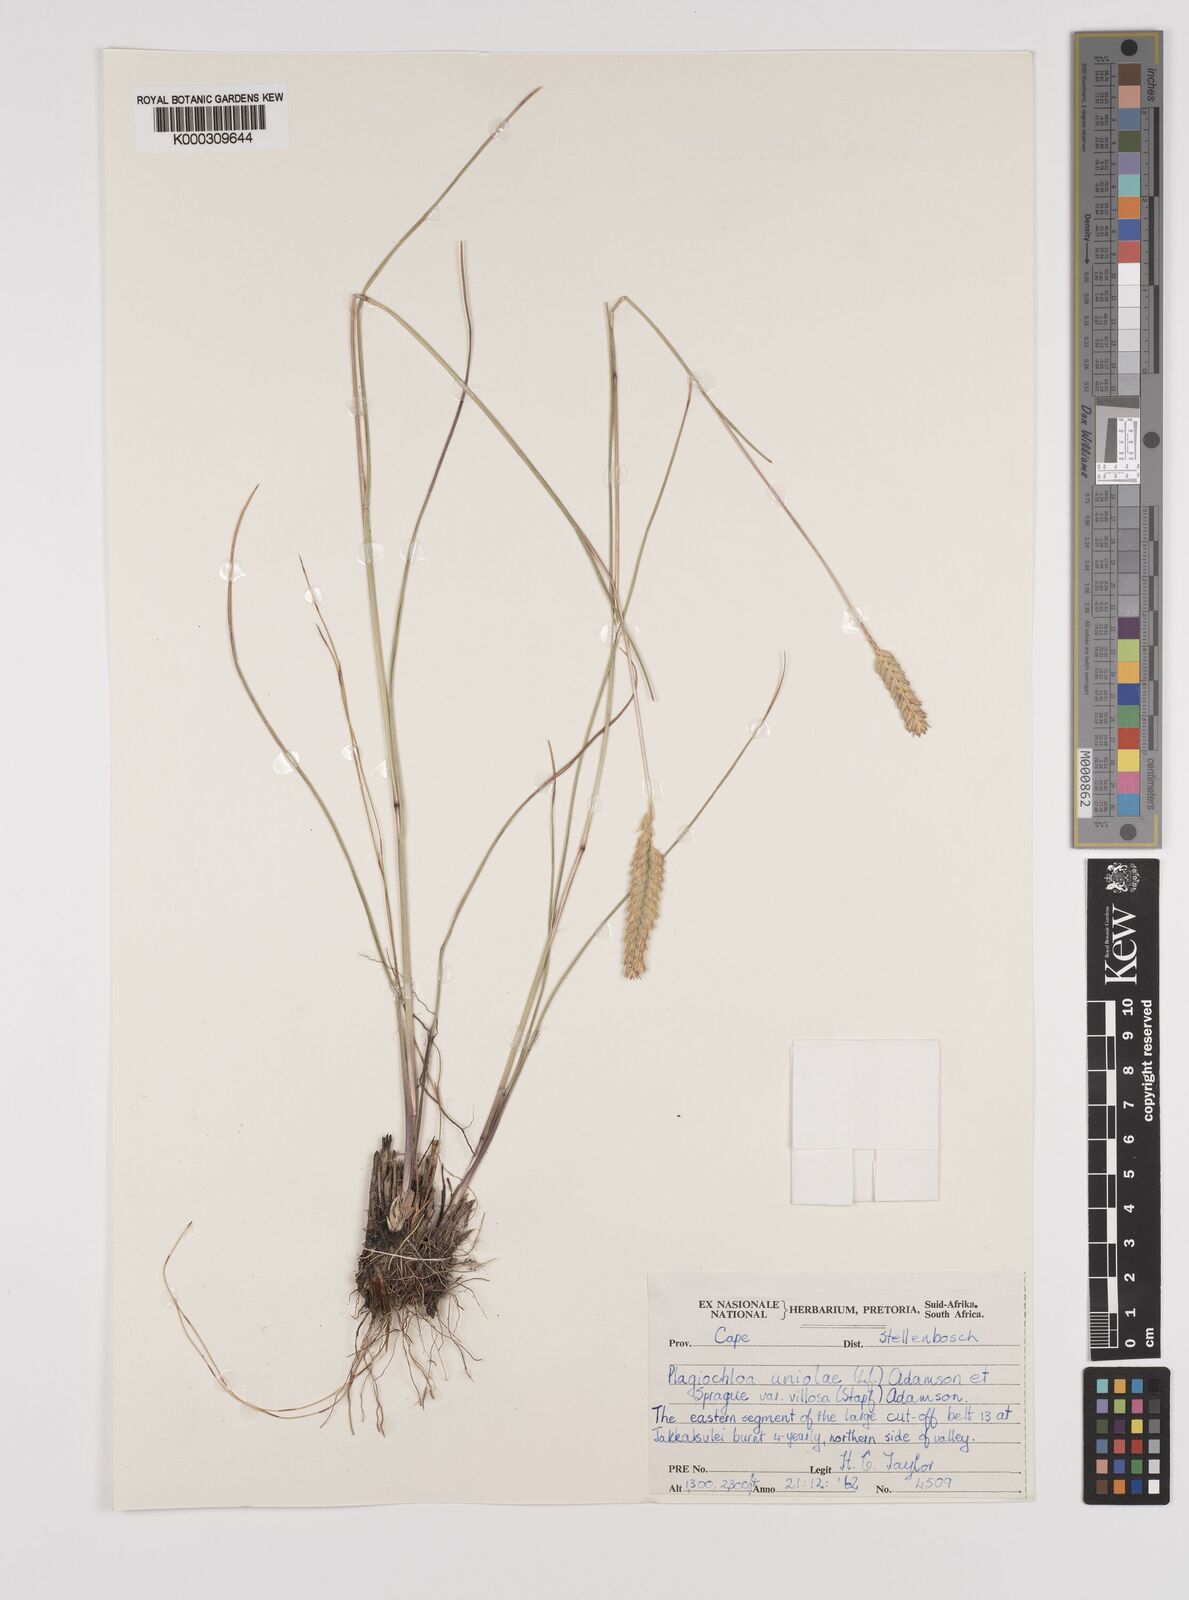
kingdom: Plantae
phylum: Tracheophyta
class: Liliopsida
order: Poales
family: Poaceae
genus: Tribolium
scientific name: Tribolium uniolae
